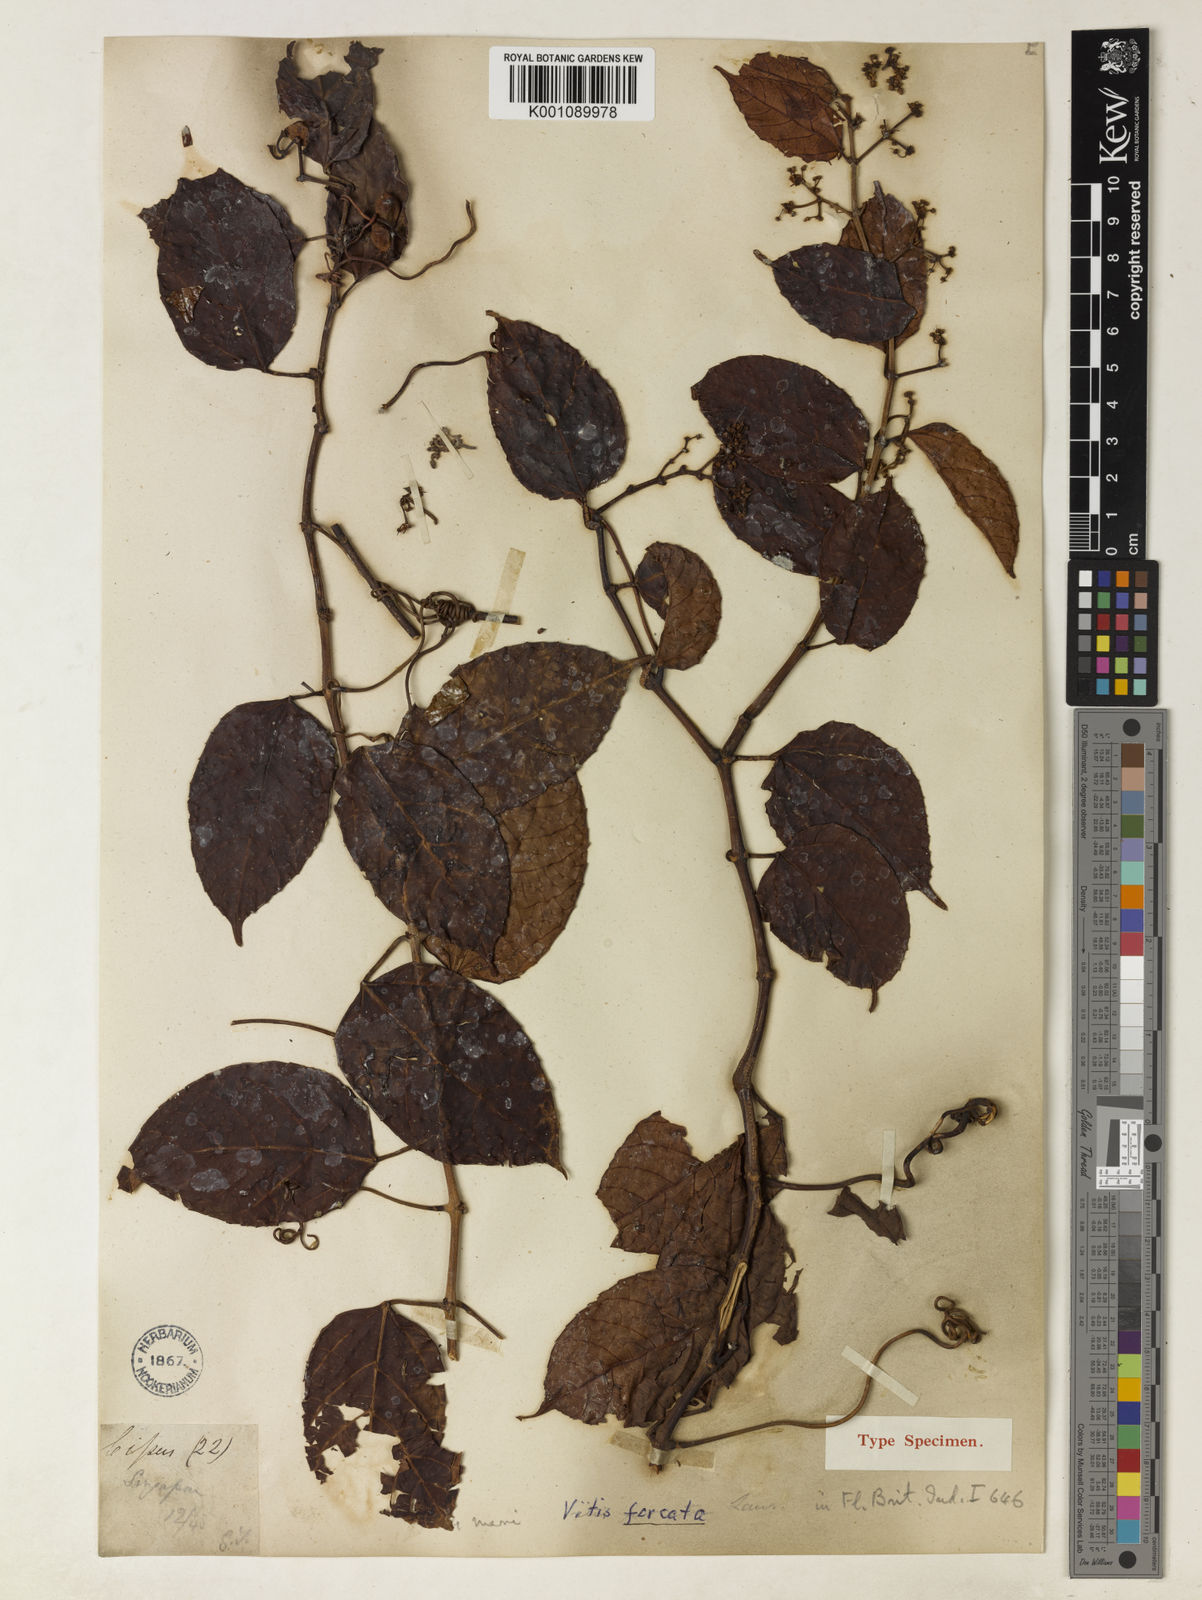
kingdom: Plantae
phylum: Tracheophyta
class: Magnoliopsida
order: Vitales
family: Vitaceae
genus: Cissus
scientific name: Cissus rostrata
